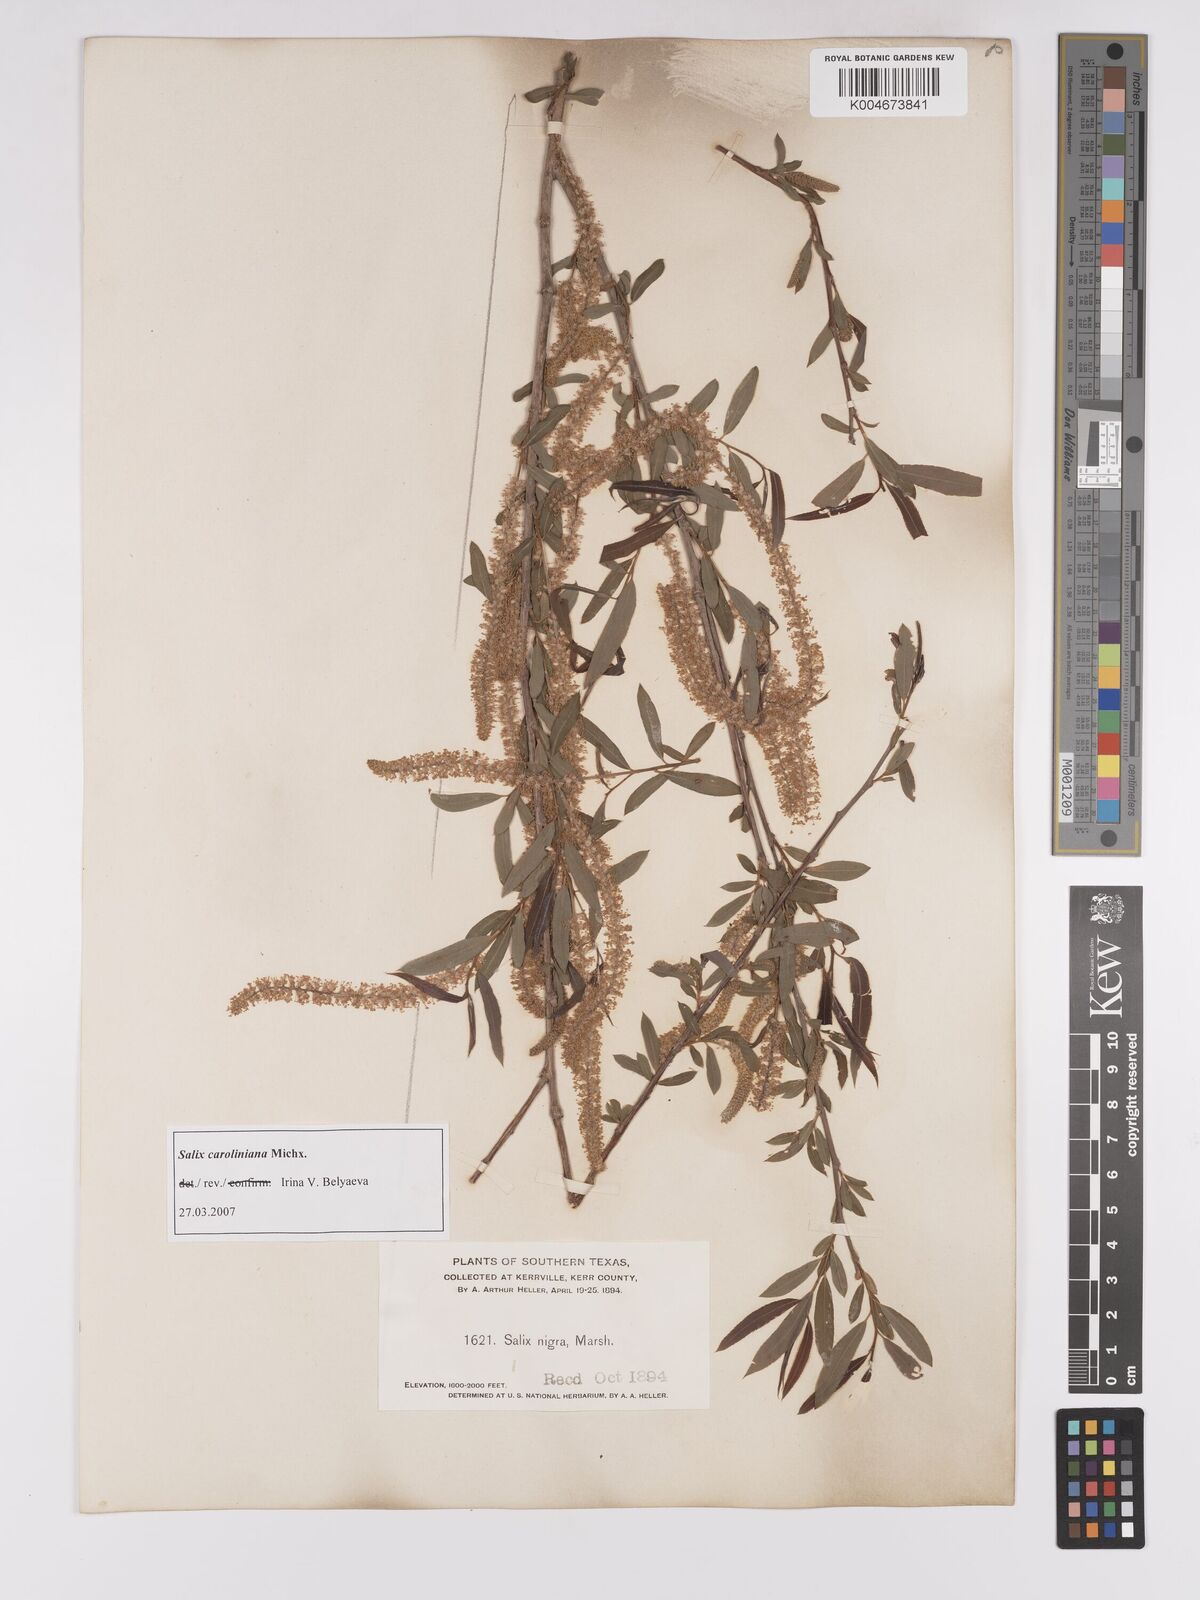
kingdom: Plantae
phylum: Tracheophyta
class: Magnoliopsida
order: Malpighiales
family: Salicaceae
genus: Salix
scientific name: Salix caroliniana
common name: Carolina willow
